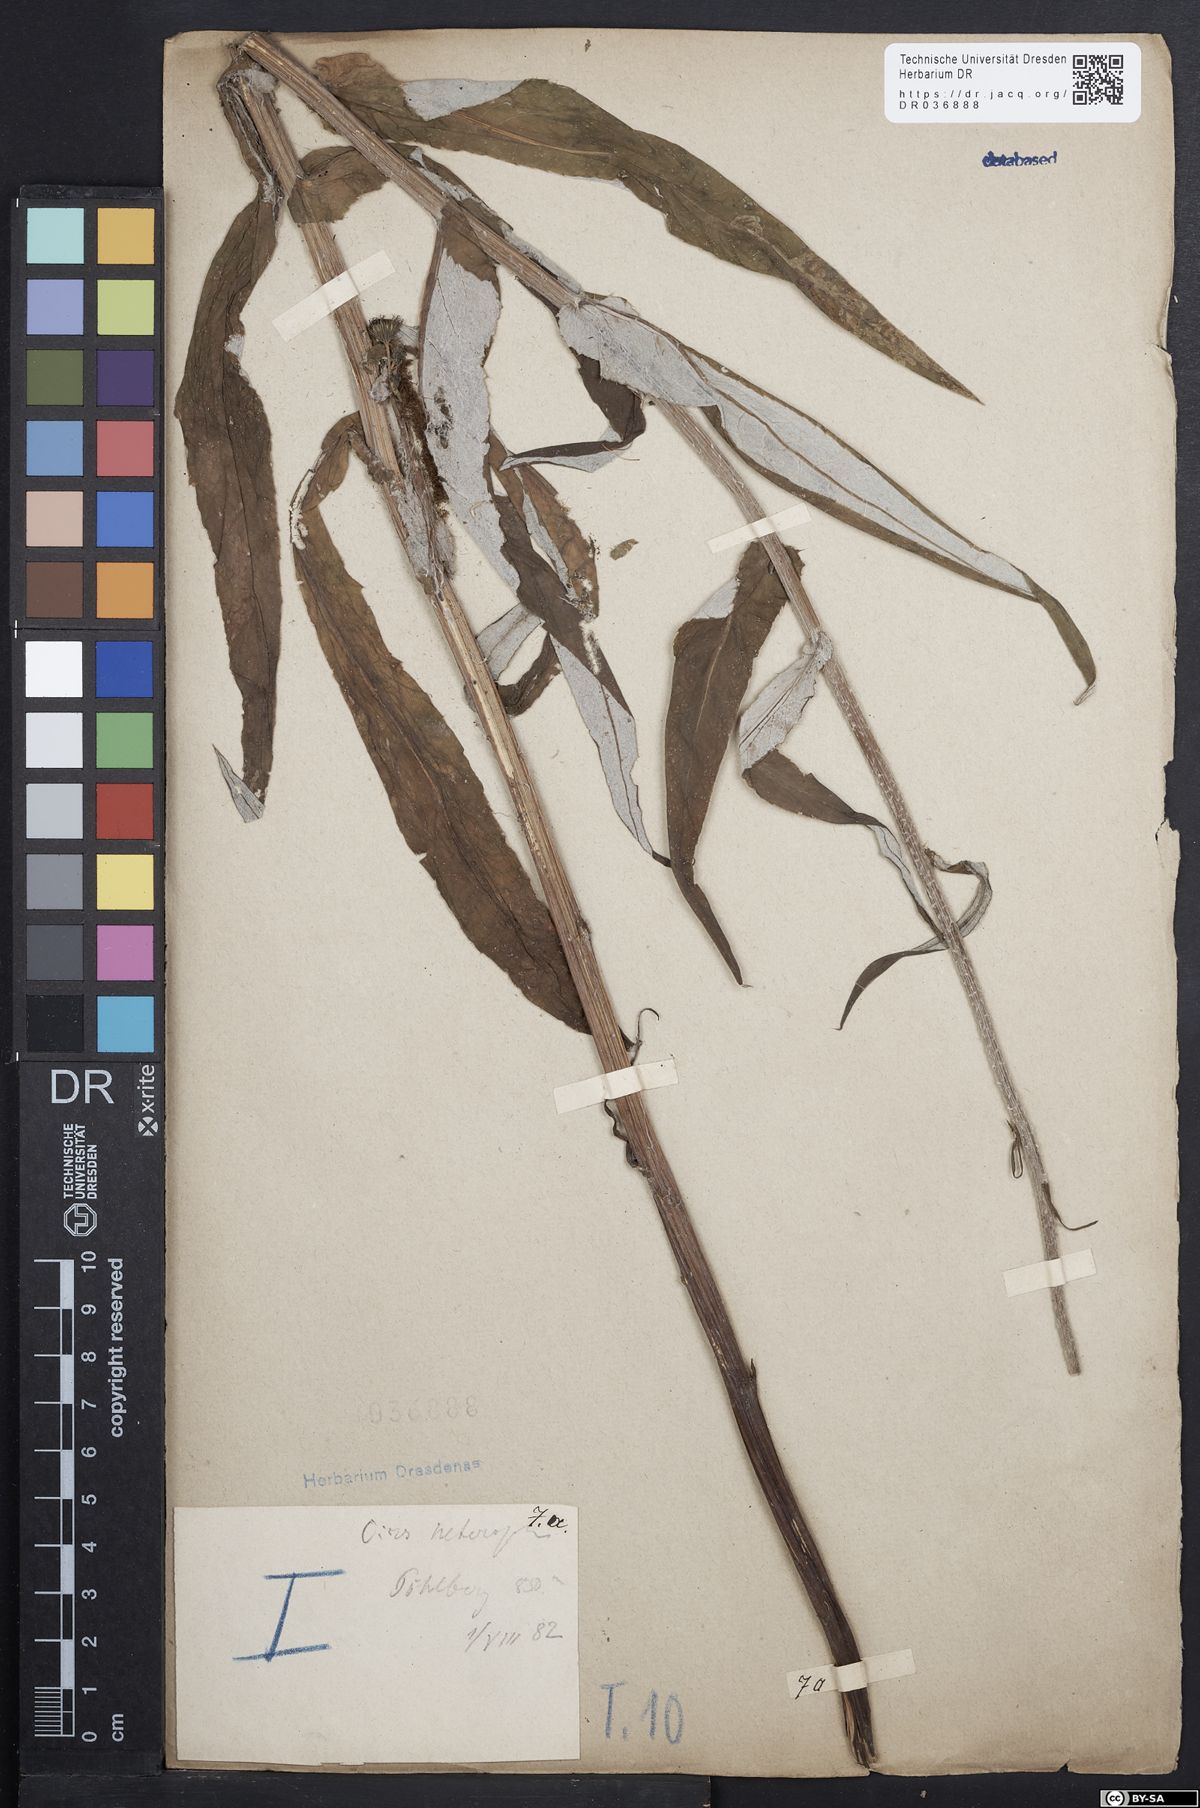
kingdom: Plantae
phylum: Tracheophyta
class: Magnoliopsida
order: Asterales
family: Asteraceae
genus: Cirsium
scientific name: Cirsium helenioides
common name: Melancholy thistle
